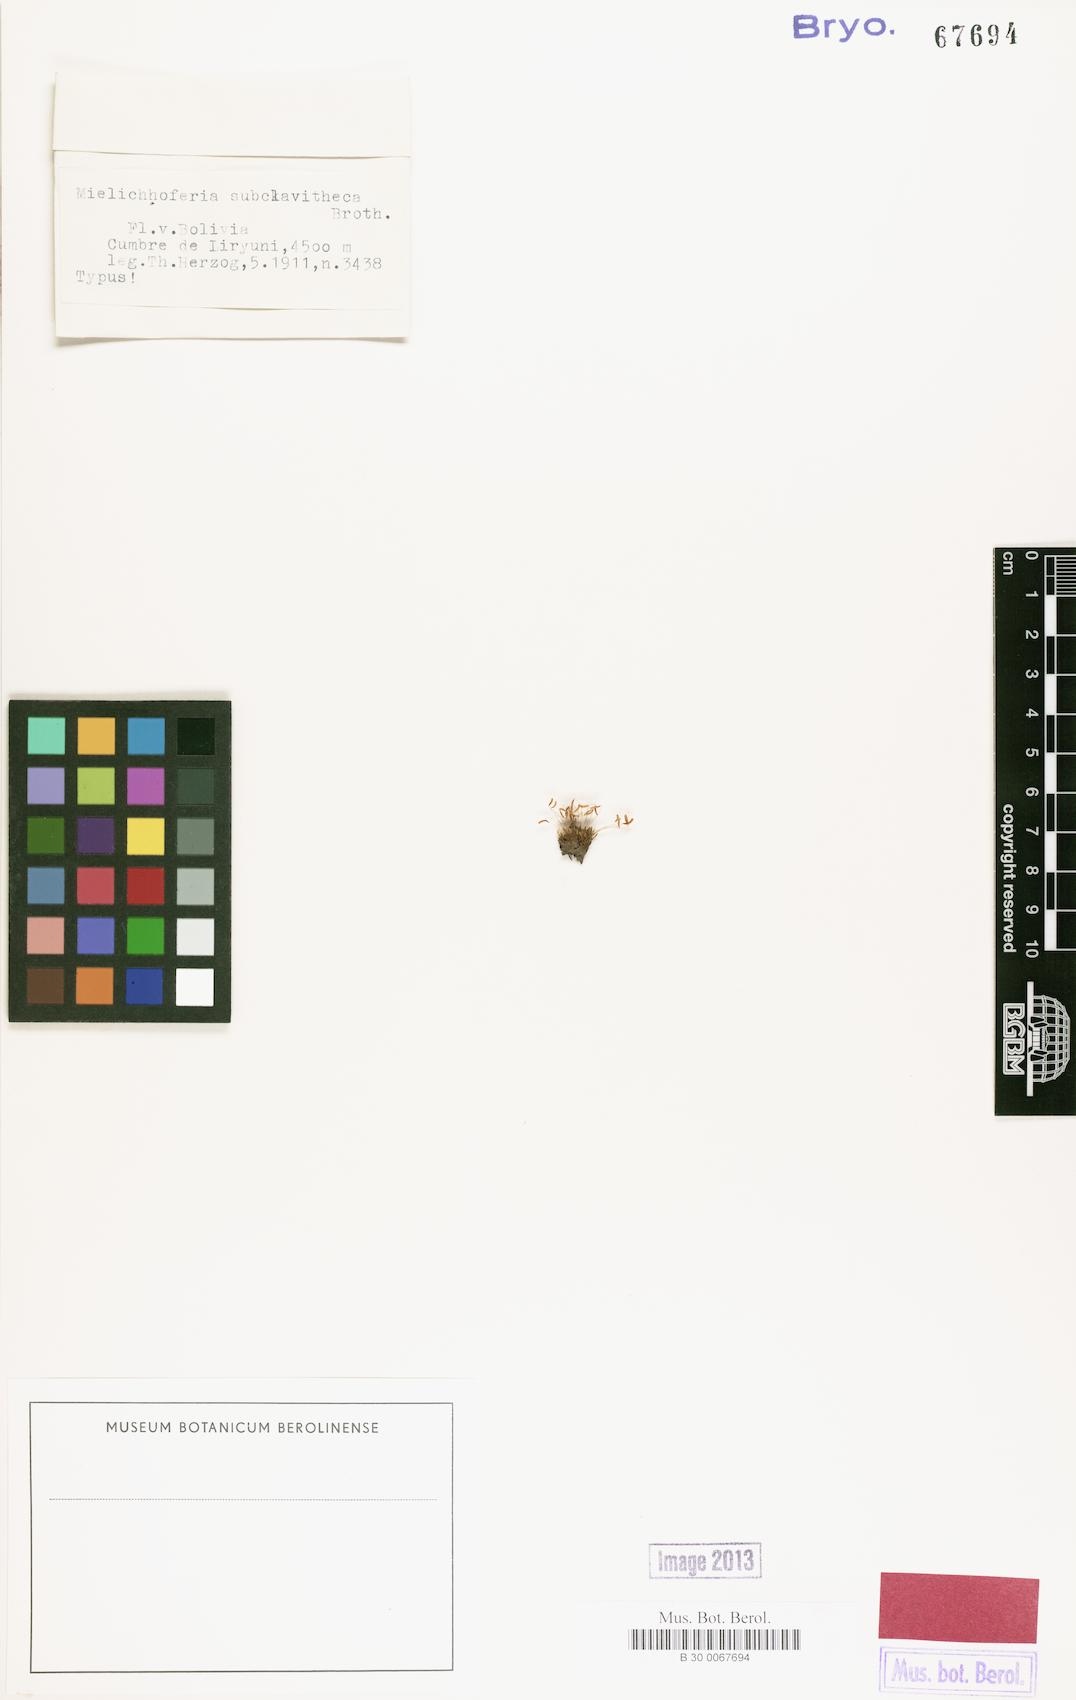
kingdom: Plantae
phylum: Bryophyta
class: Bryopsida
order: Bryales
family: Mniaceae
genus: Schizymenium
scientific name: Schizymenium lindigii
